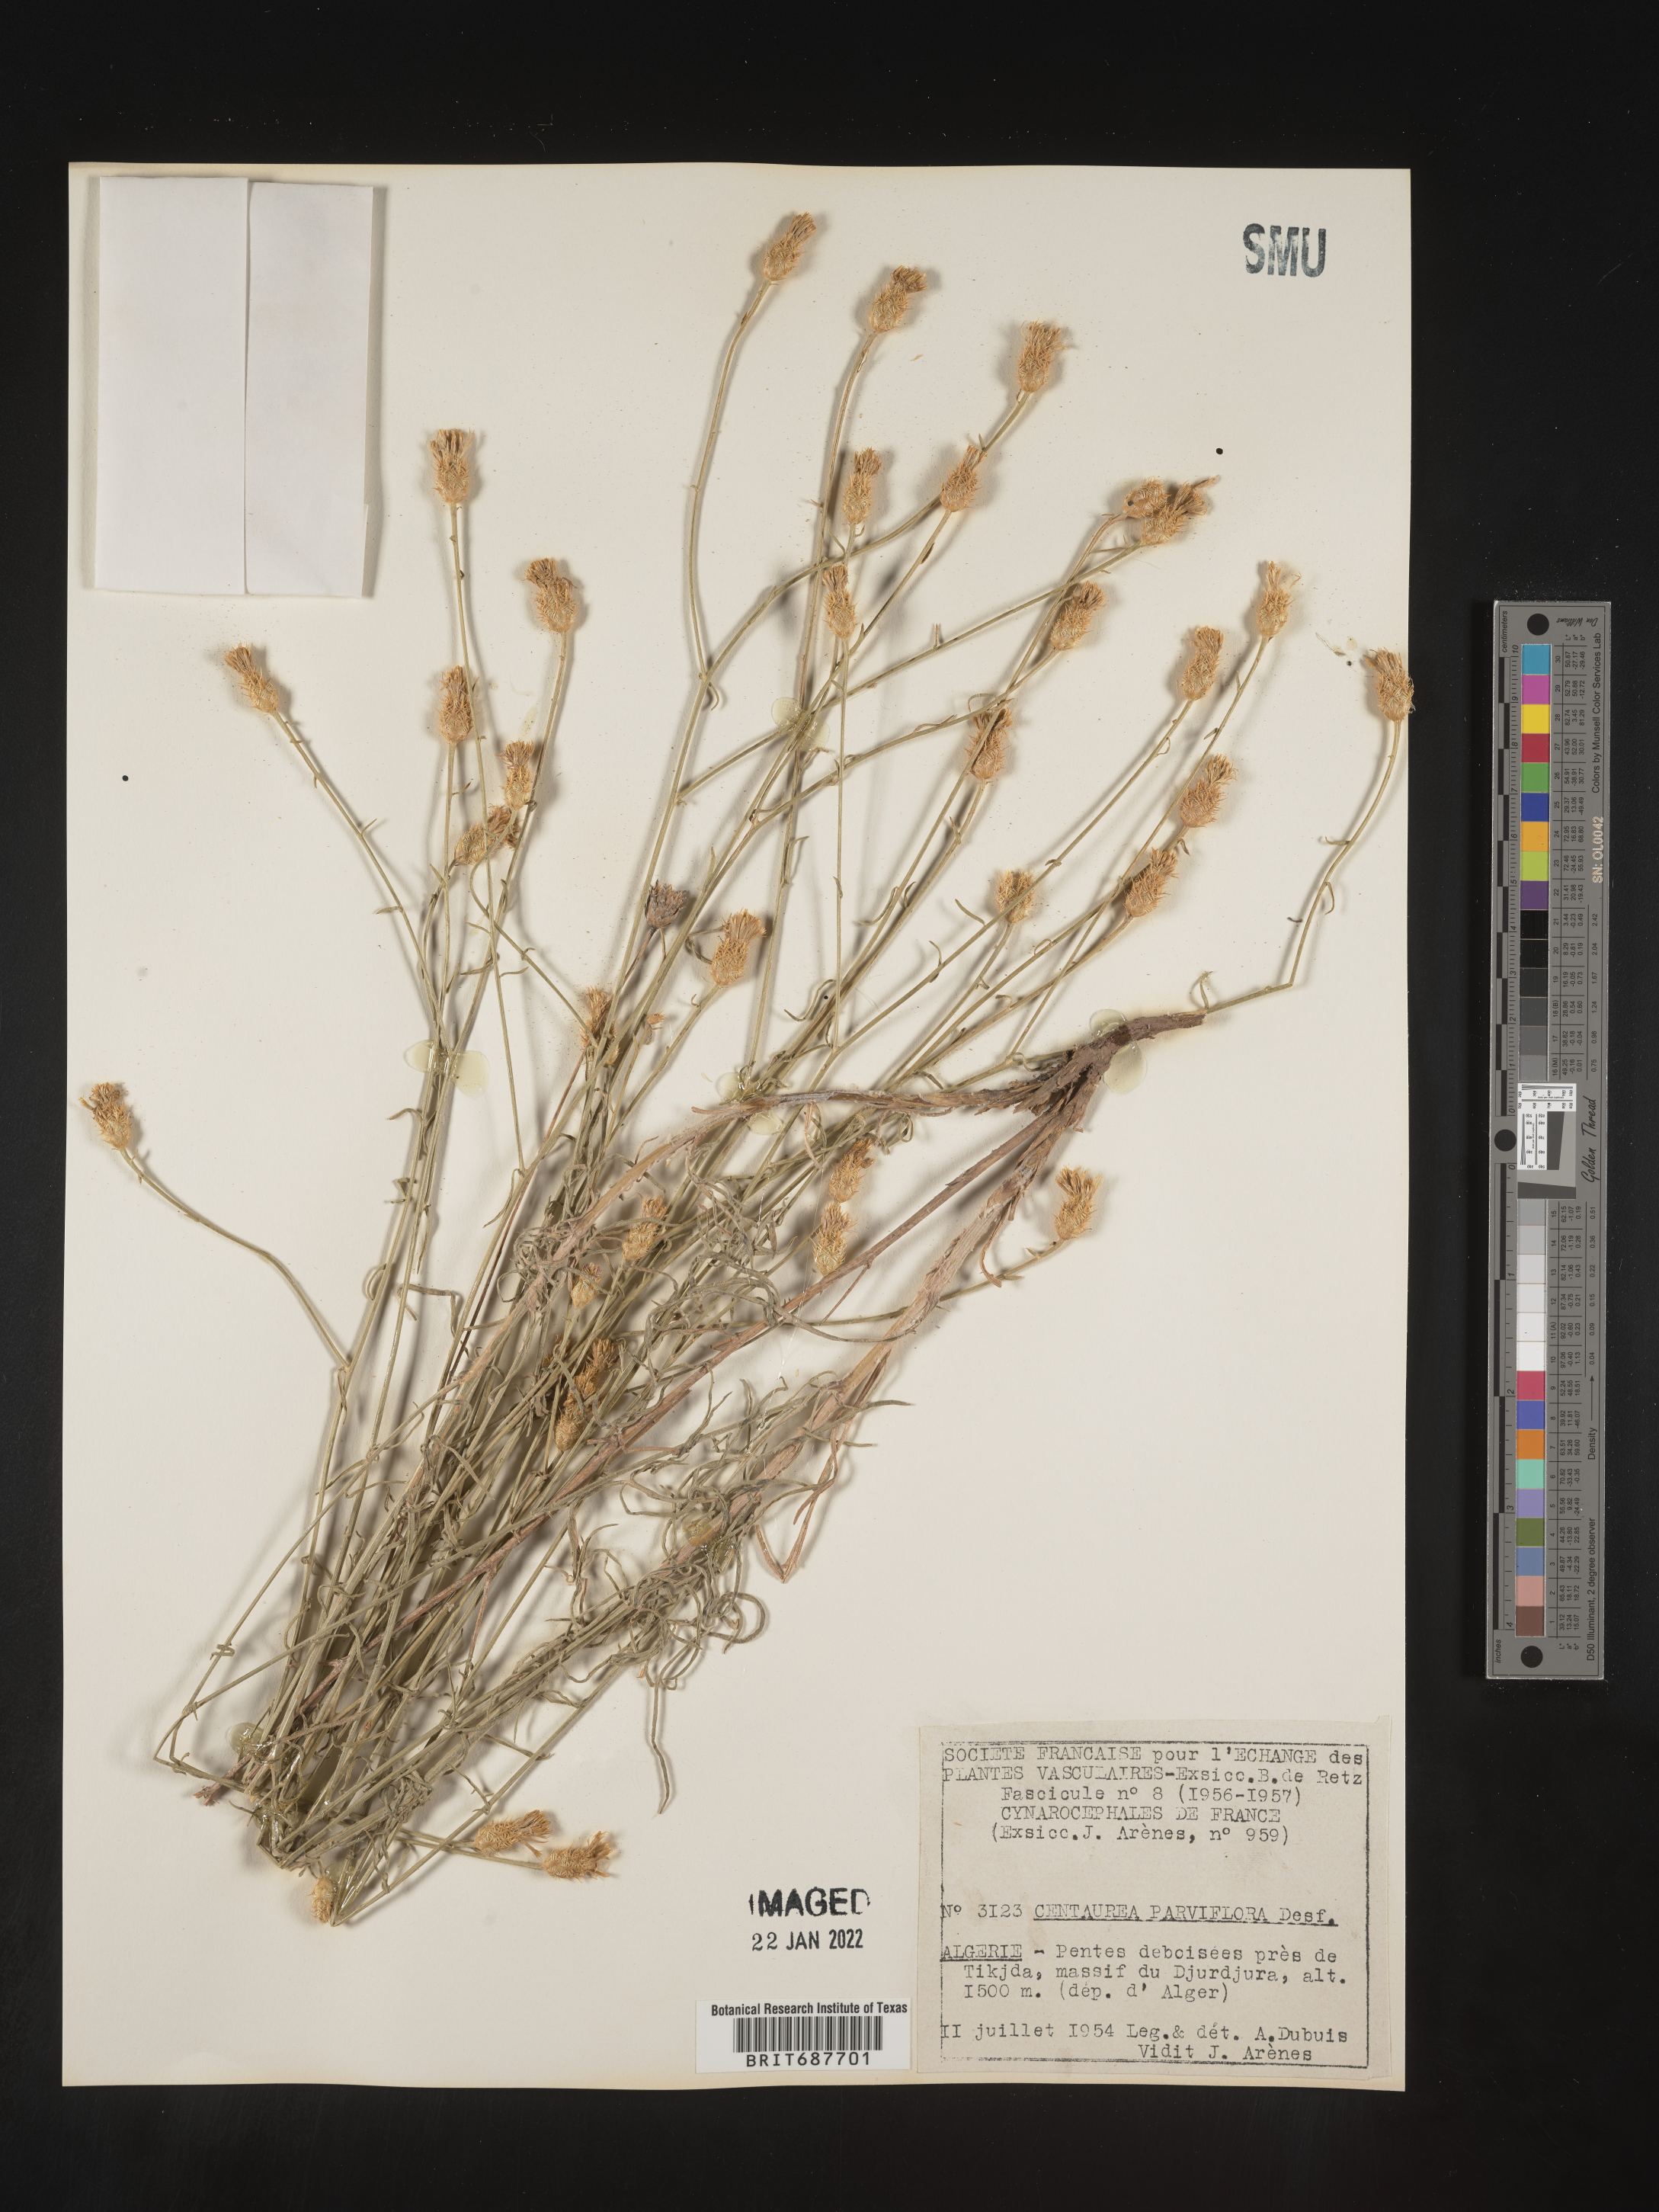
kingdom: Plantae
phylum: Tracheophyta
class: Magnoliopsida
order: Asterales
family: Asteraceae
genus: Centaurea
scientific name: Centaurea
